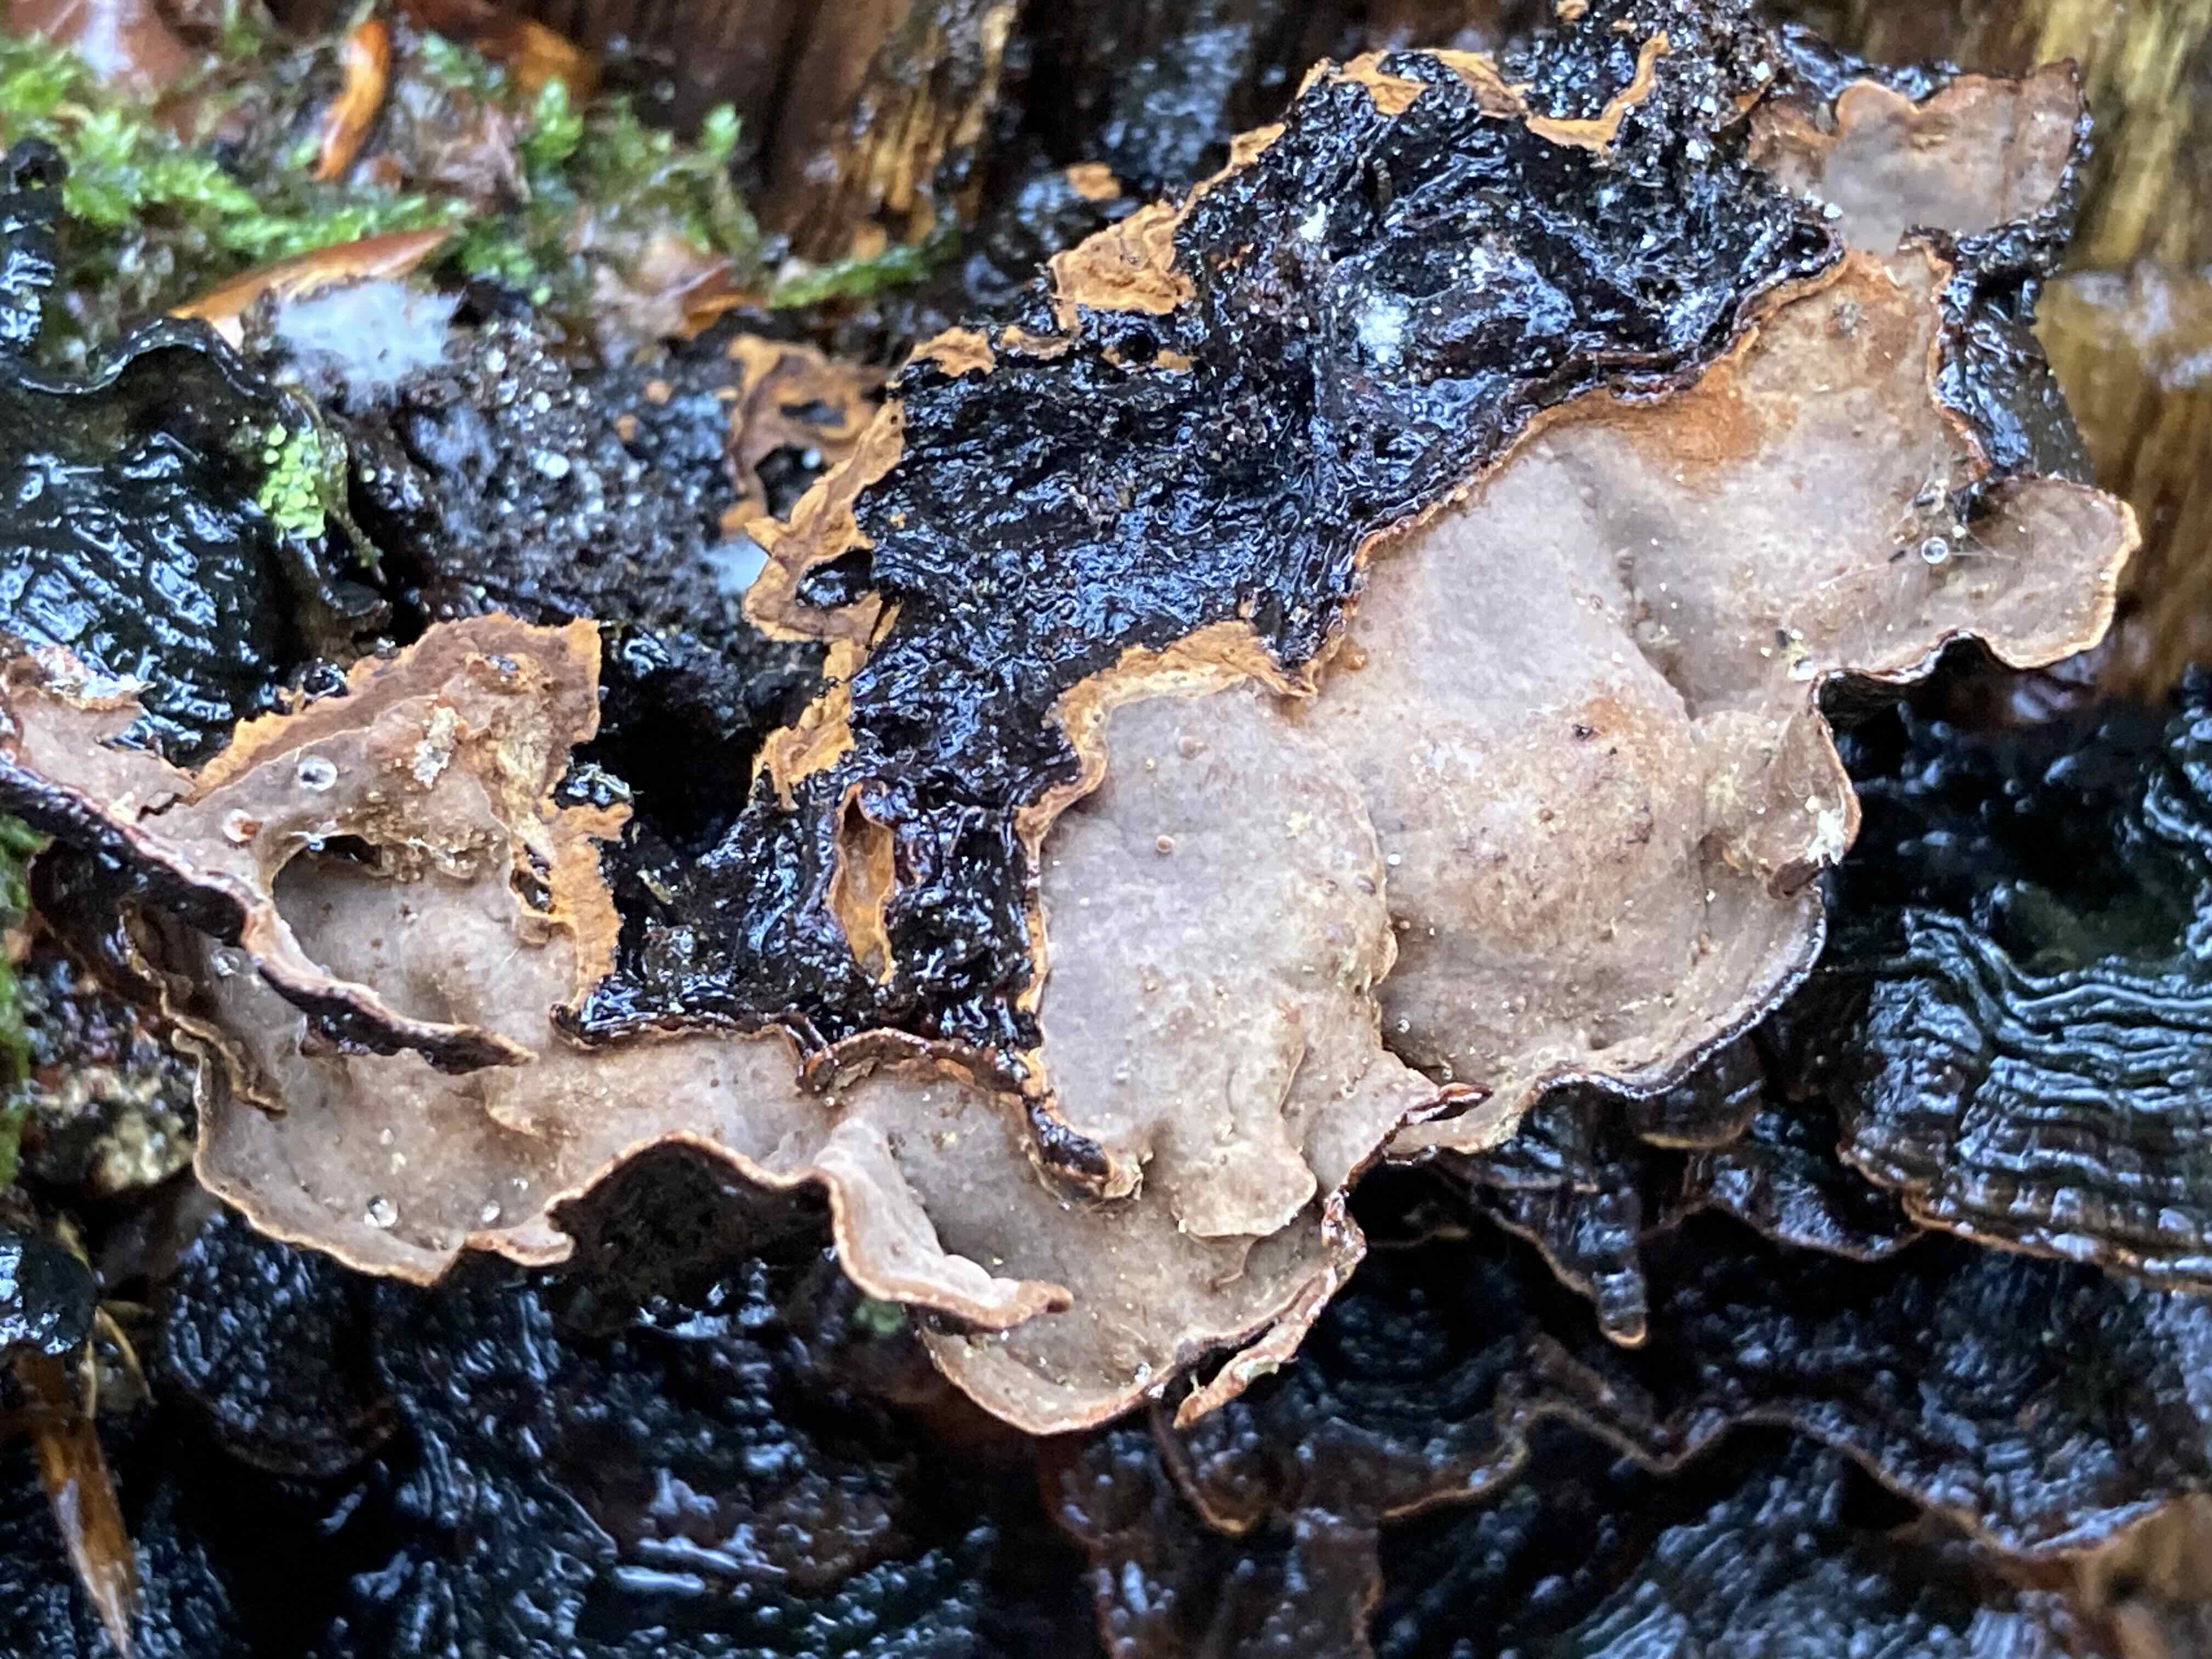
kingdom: Fungi
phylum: Basidiomycota
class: Agaricomycetes
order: Hymenochaetales
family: Hymenochaetaceae
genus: Hymenochaete
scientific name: Hymenochaete rubiginosa
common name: stiv ruslædersvamp
